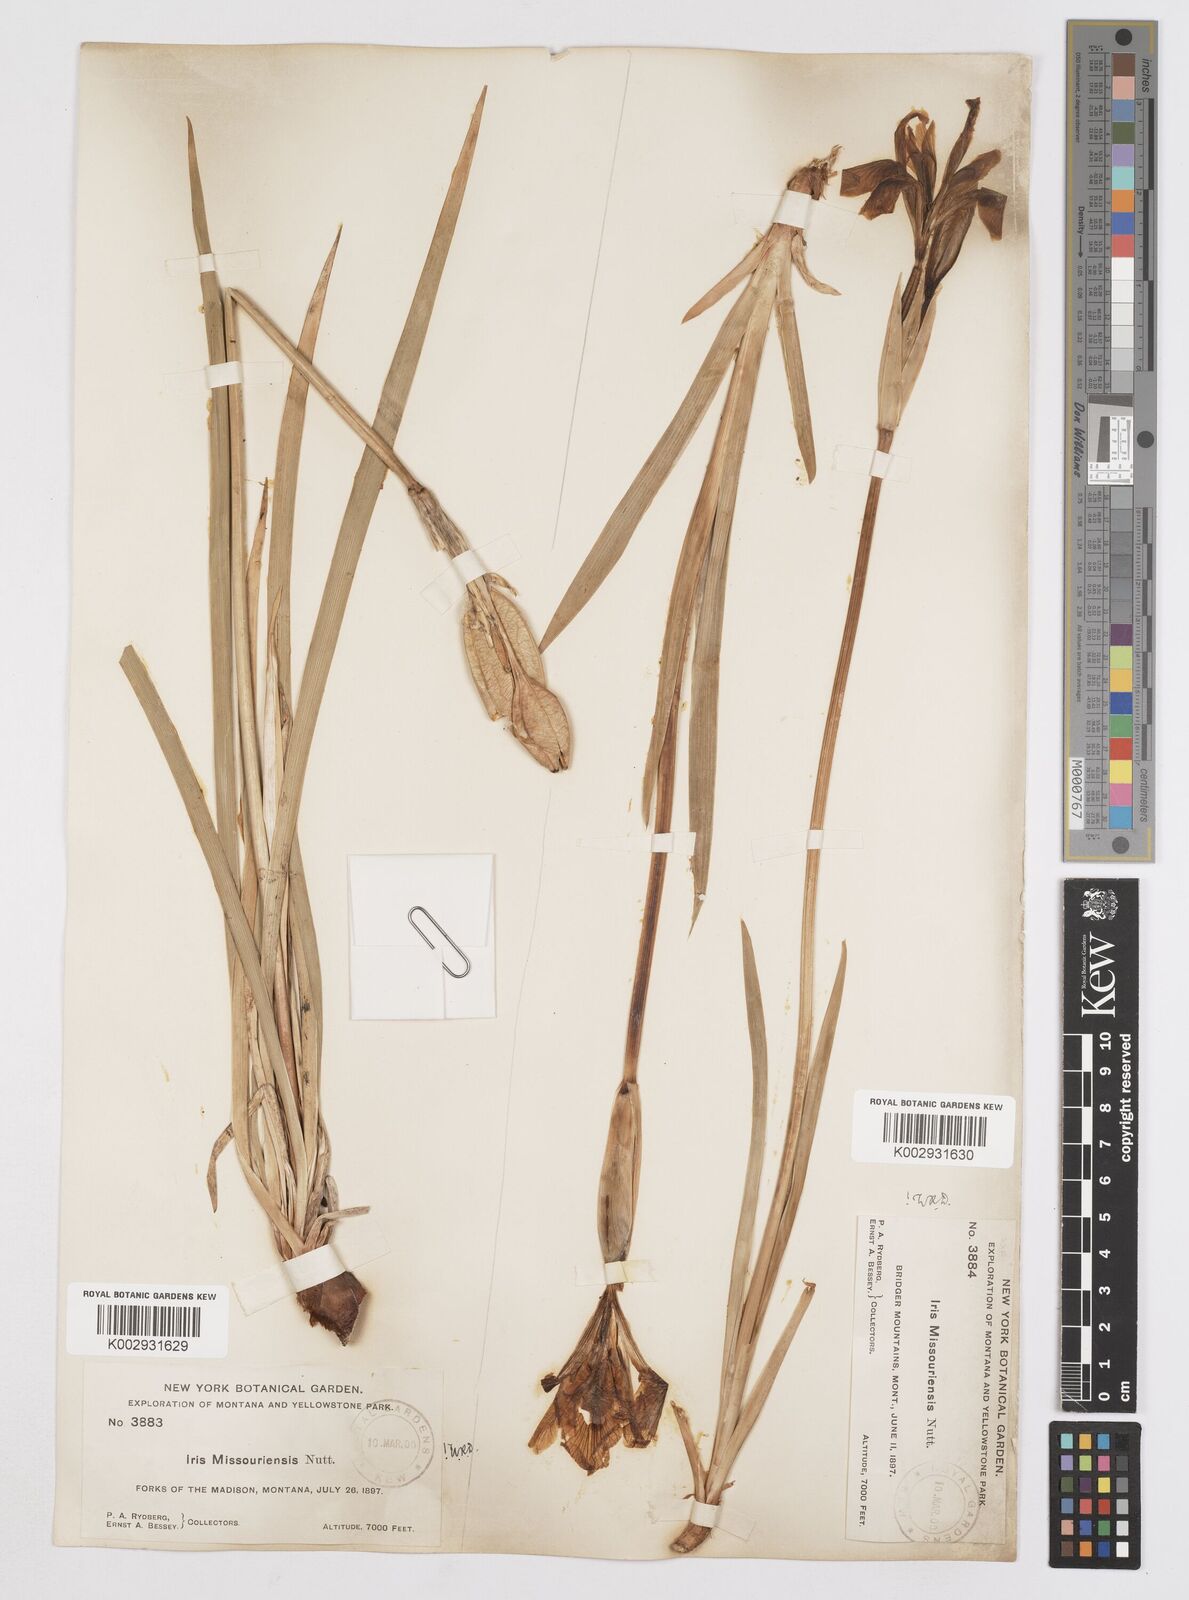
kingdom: Plantae
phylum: Tracheophyta
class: Liliopsida
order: Asparagales
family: Iridaceae
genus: Iris
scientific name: Iris missouriensis
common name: Rocky mountain iris
